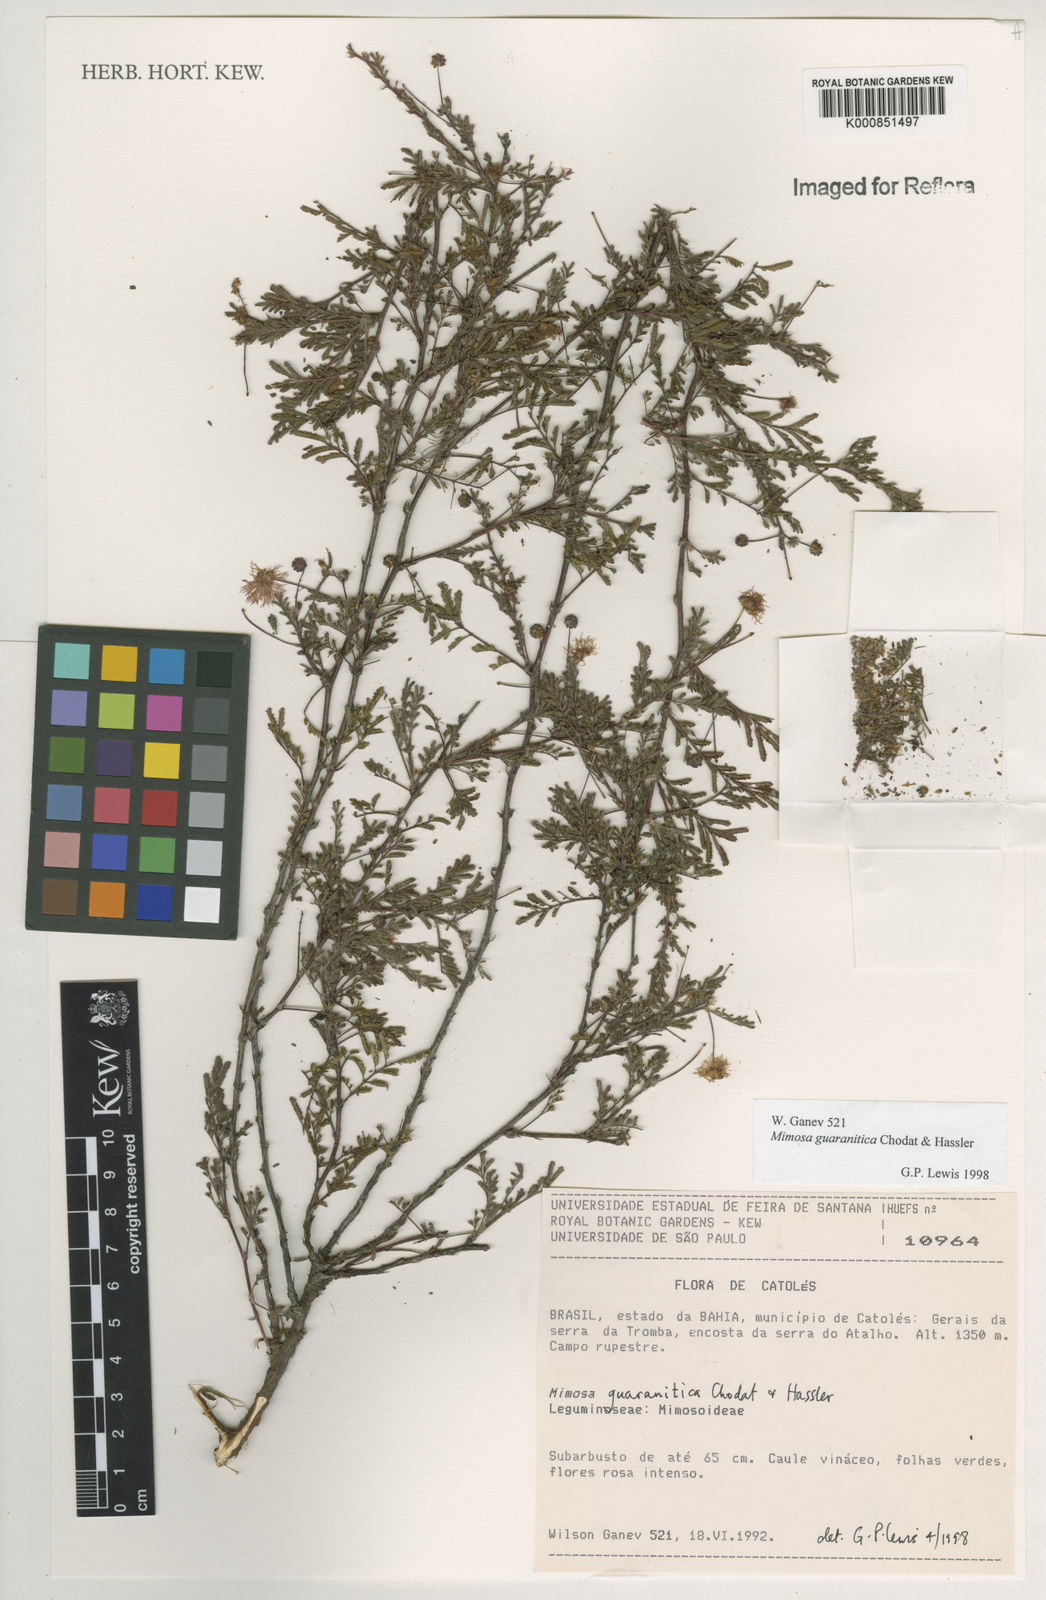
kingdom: Plantae
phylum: Tracheophyta
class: Magnoliopsida
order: Fabales
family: Fabaceae
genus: Mimosa
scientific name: Mimosa guaranitica
